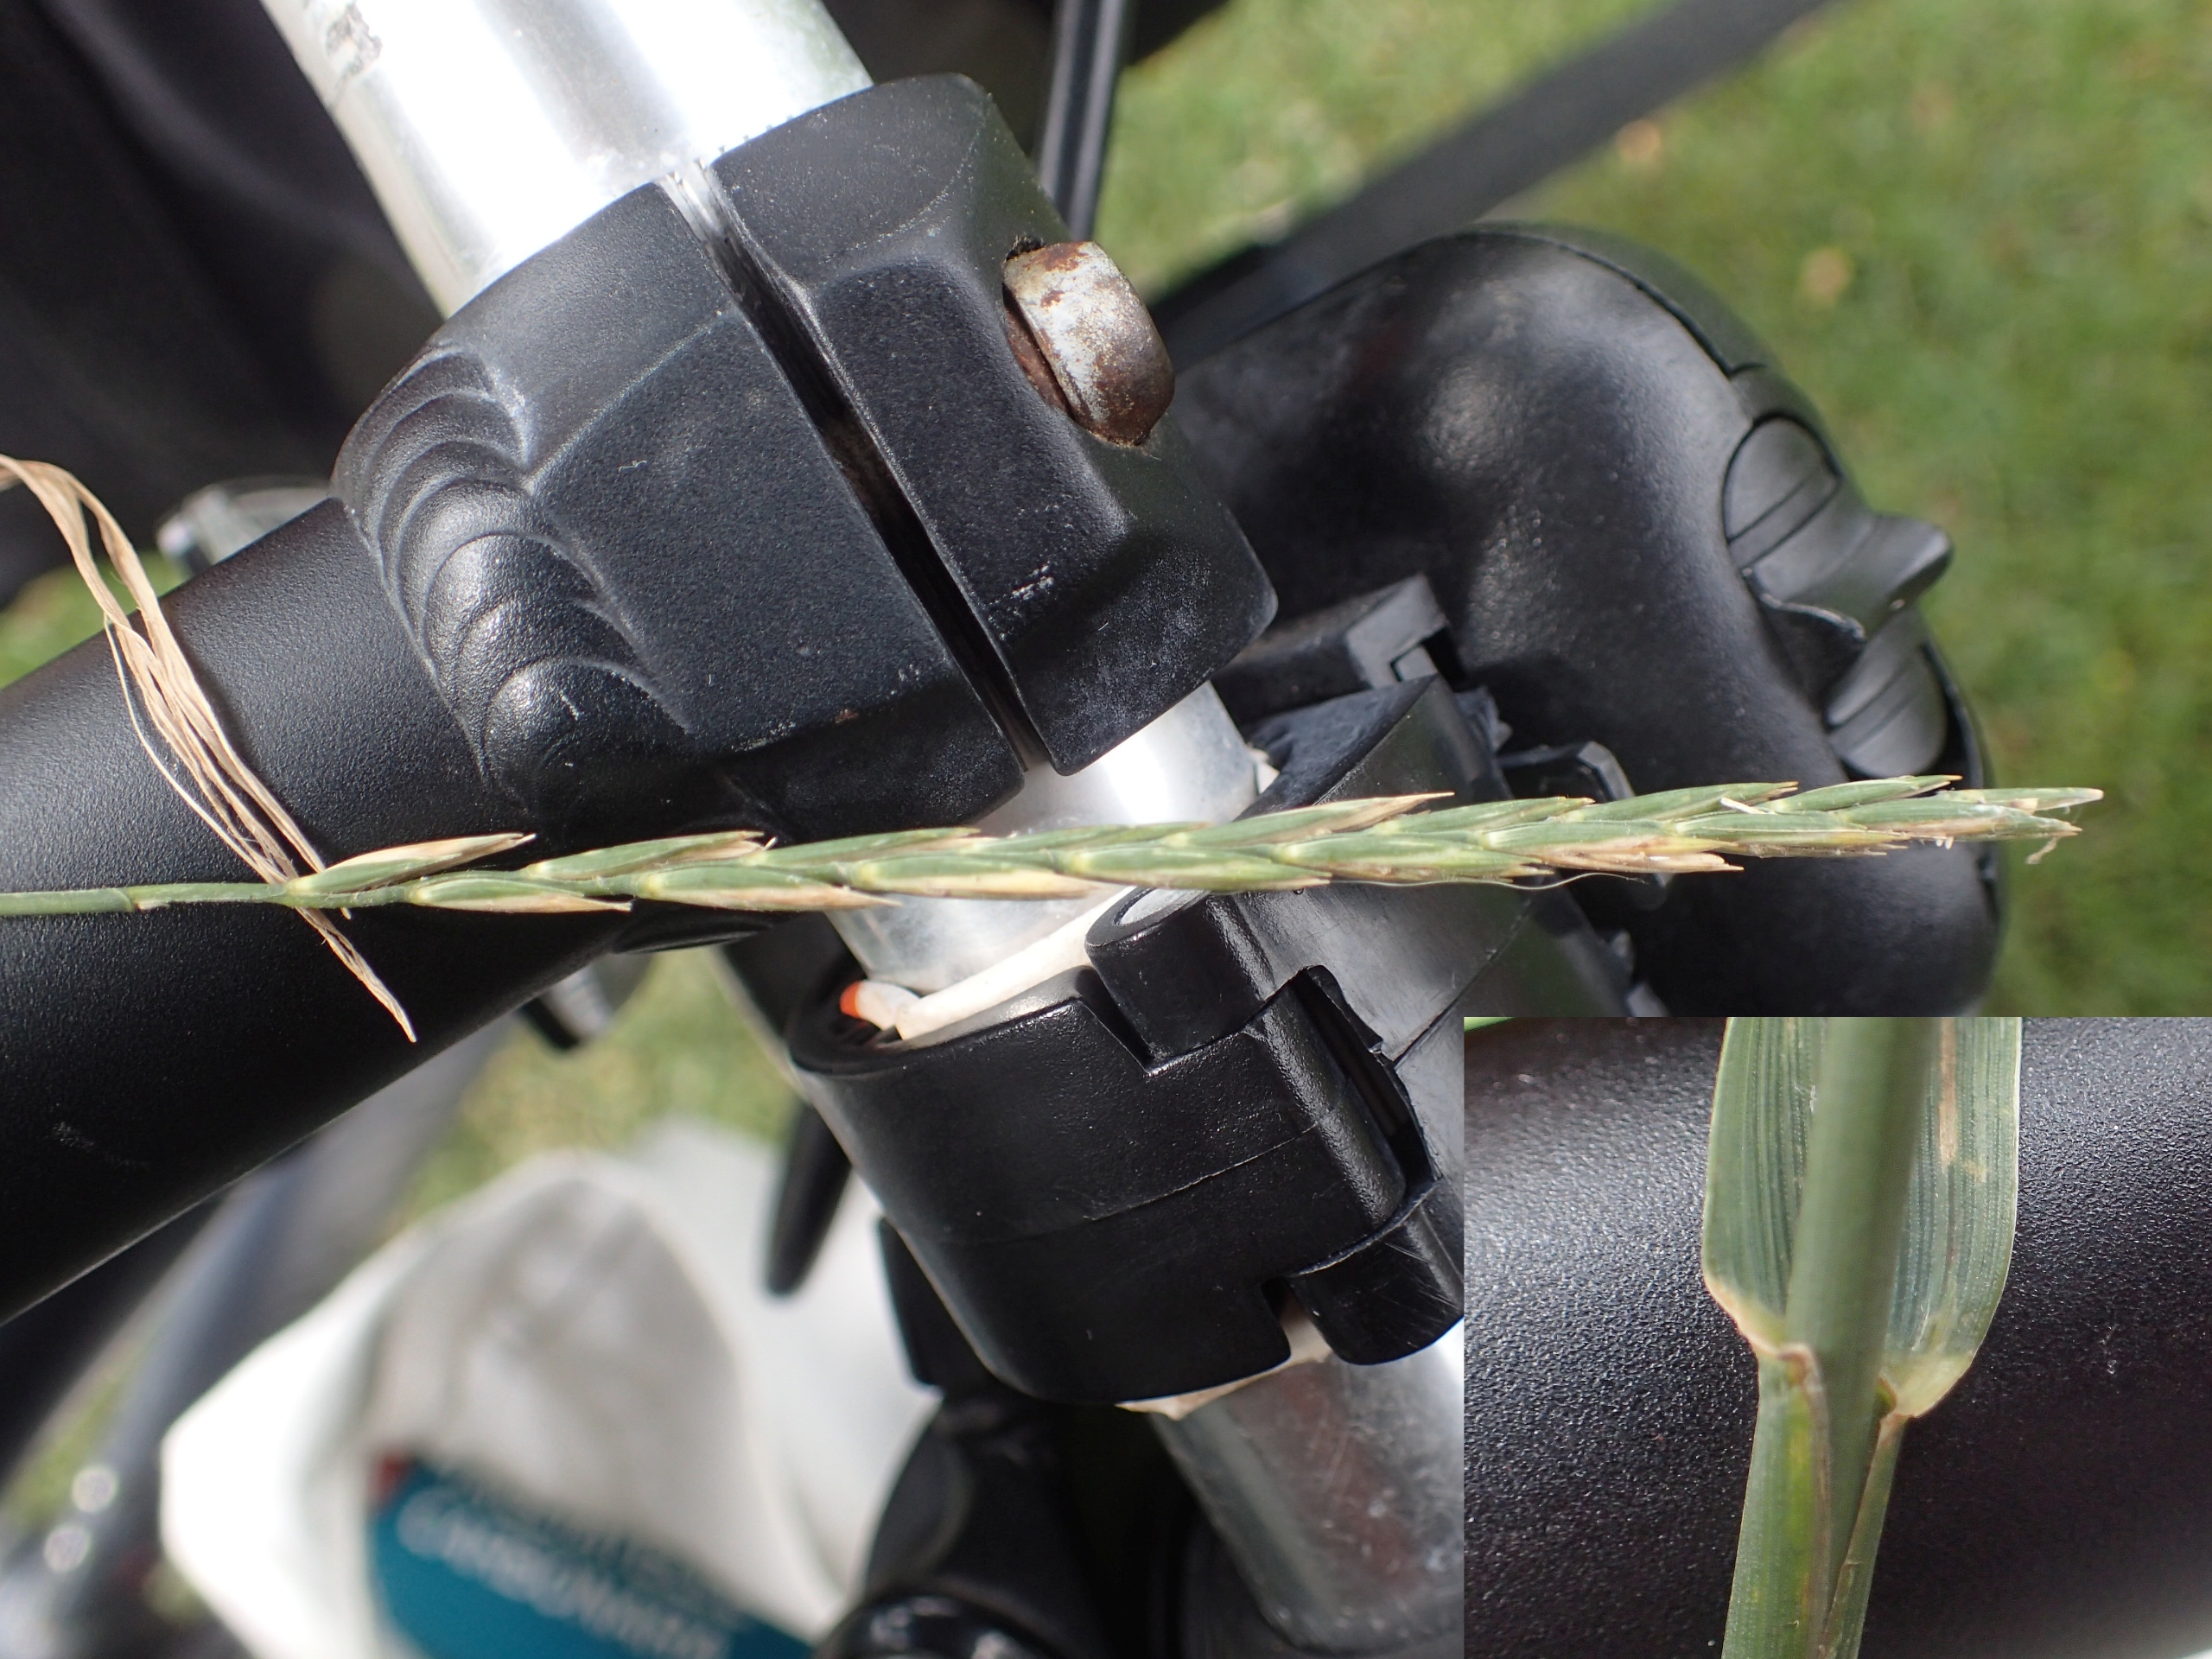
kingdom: Plantae
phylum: Tracheophyta
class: Liliopsida
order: Poales
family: Poaceae
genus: Elymus
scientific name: Elymus repens
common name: Almindelig kvik
